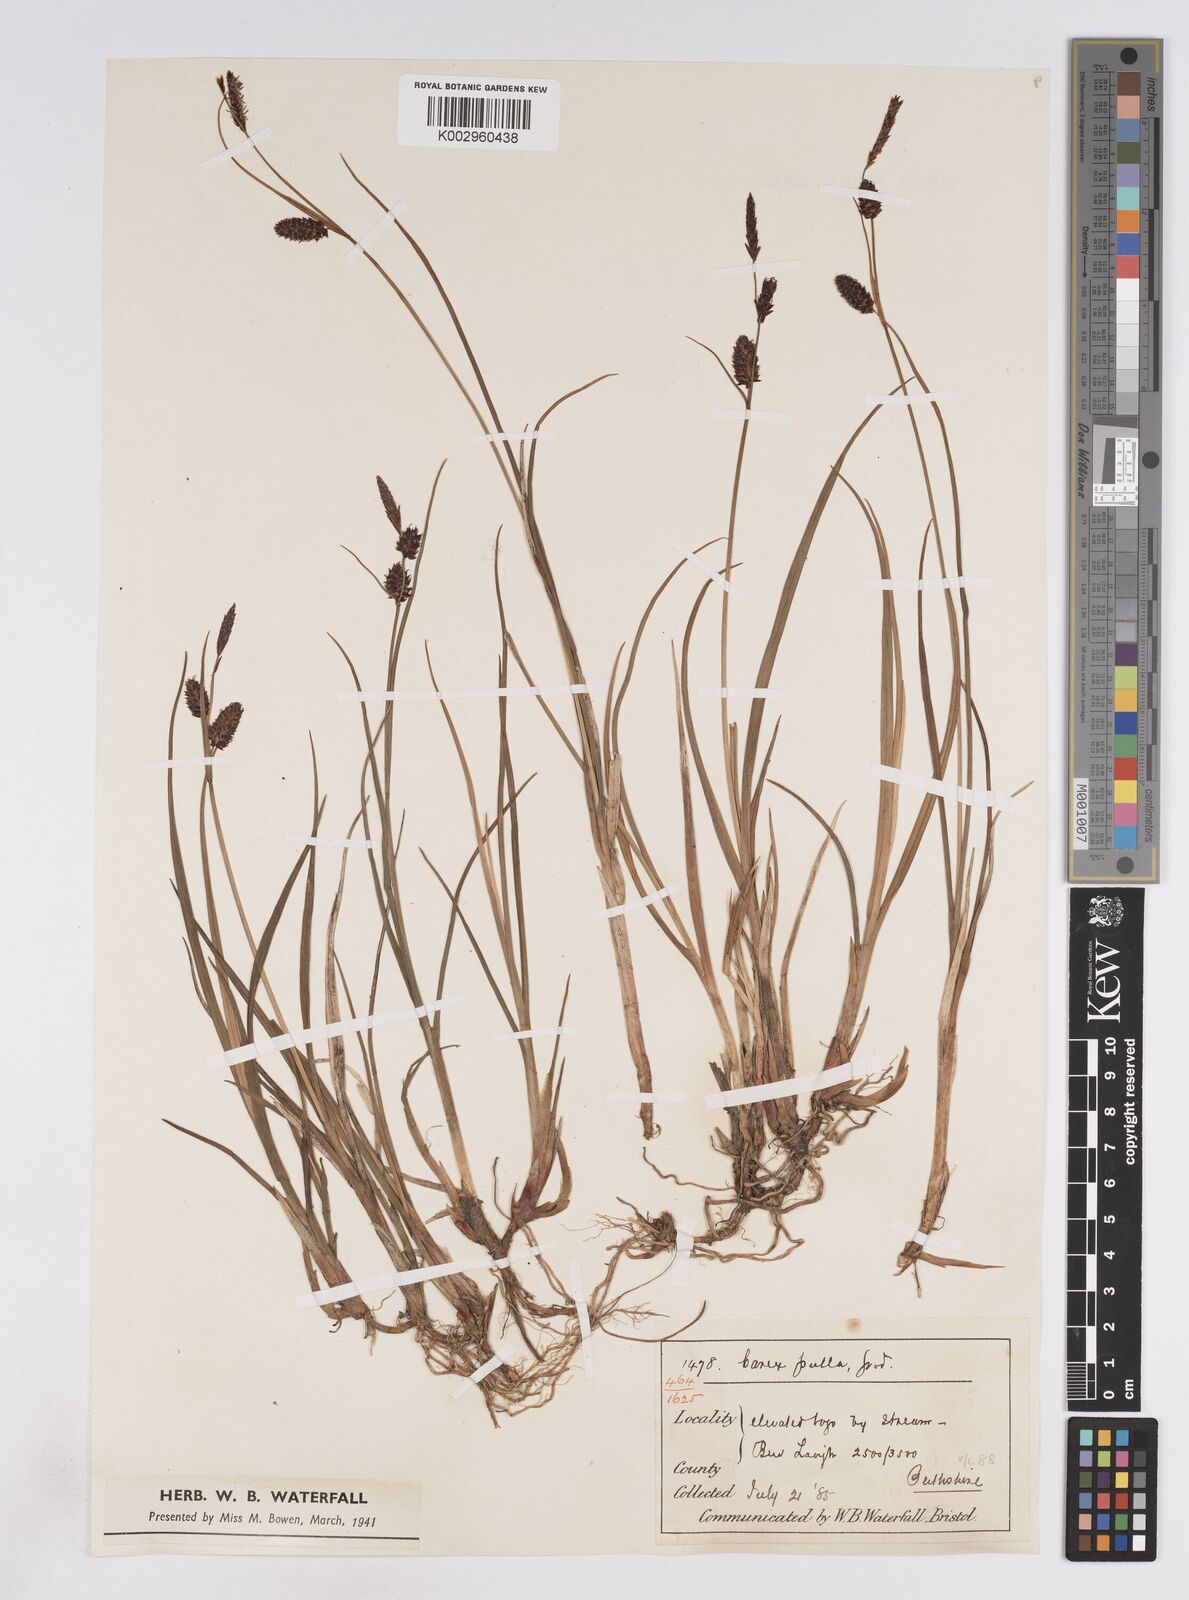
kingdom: Plantae
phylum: Tracheophyta
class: Liliopsida
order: Poales
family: Cyperaceae
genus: Carex
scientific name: Carex saxatilis
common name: Russet sedge
